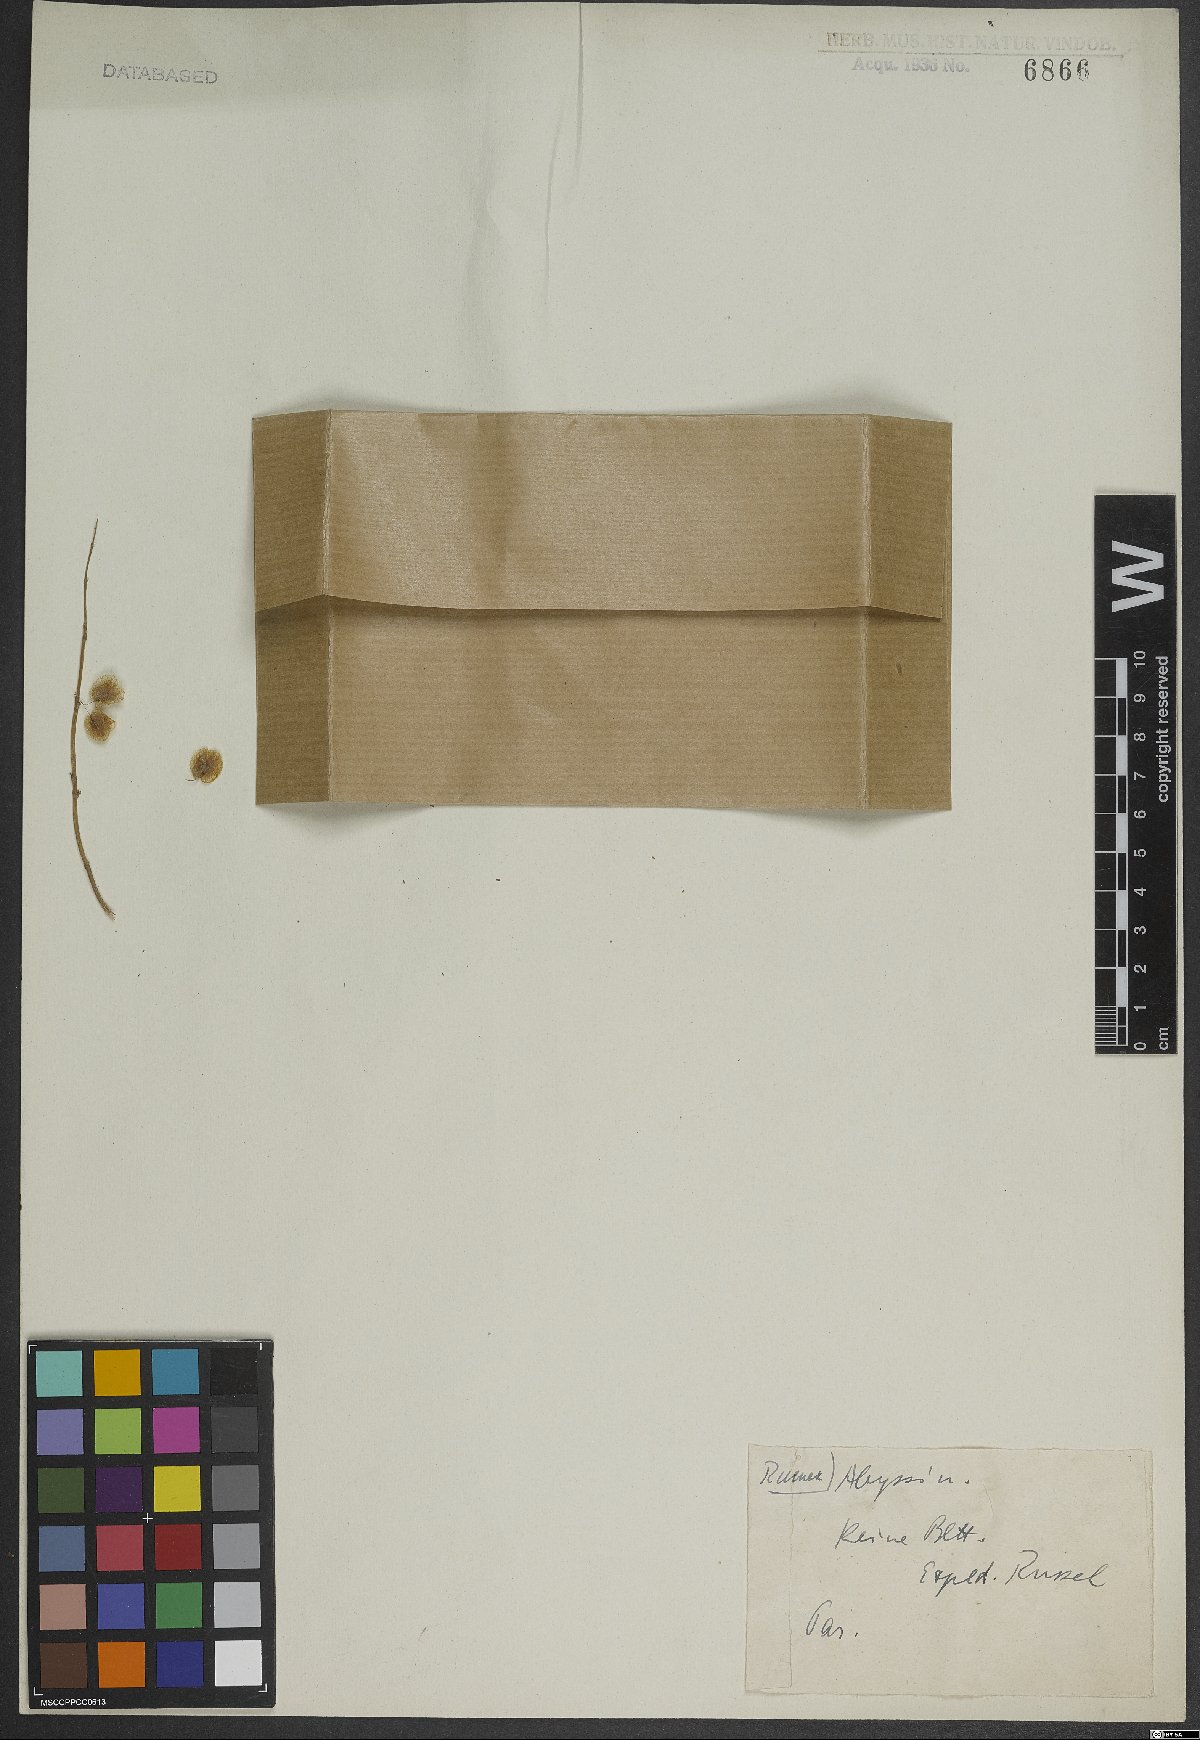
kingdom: Plantae
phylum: Tracheophyta
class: Magnoliopsida
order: Caryophyllales
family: Polygonaceae
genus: Rumex
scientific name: Rumex abyssinicus
